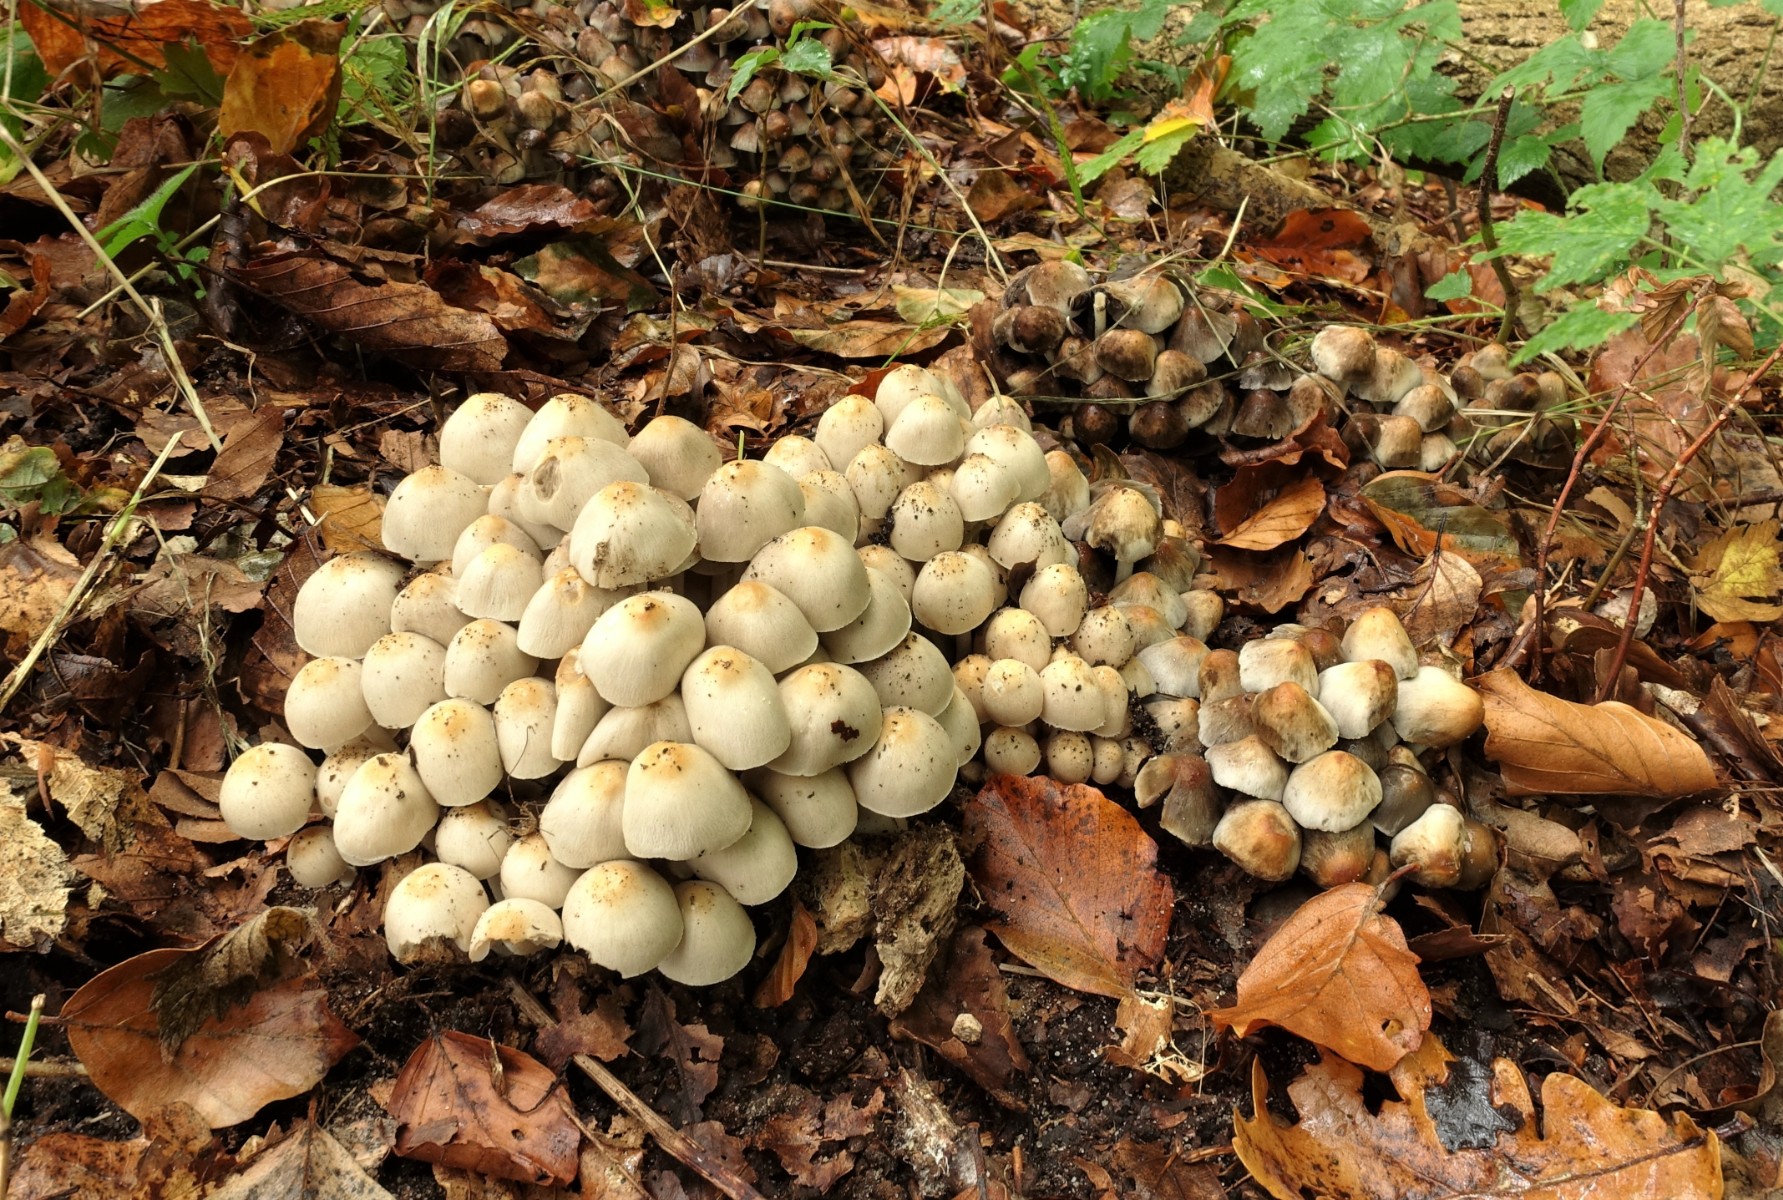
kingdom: Fungi
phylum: Basidiomycota
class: Agaricomycetes
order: Agaricales
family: Psathyrellaceae
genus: Britzelmayria
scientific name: Britzelmayria multipedata
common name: knippe-mørkhat
